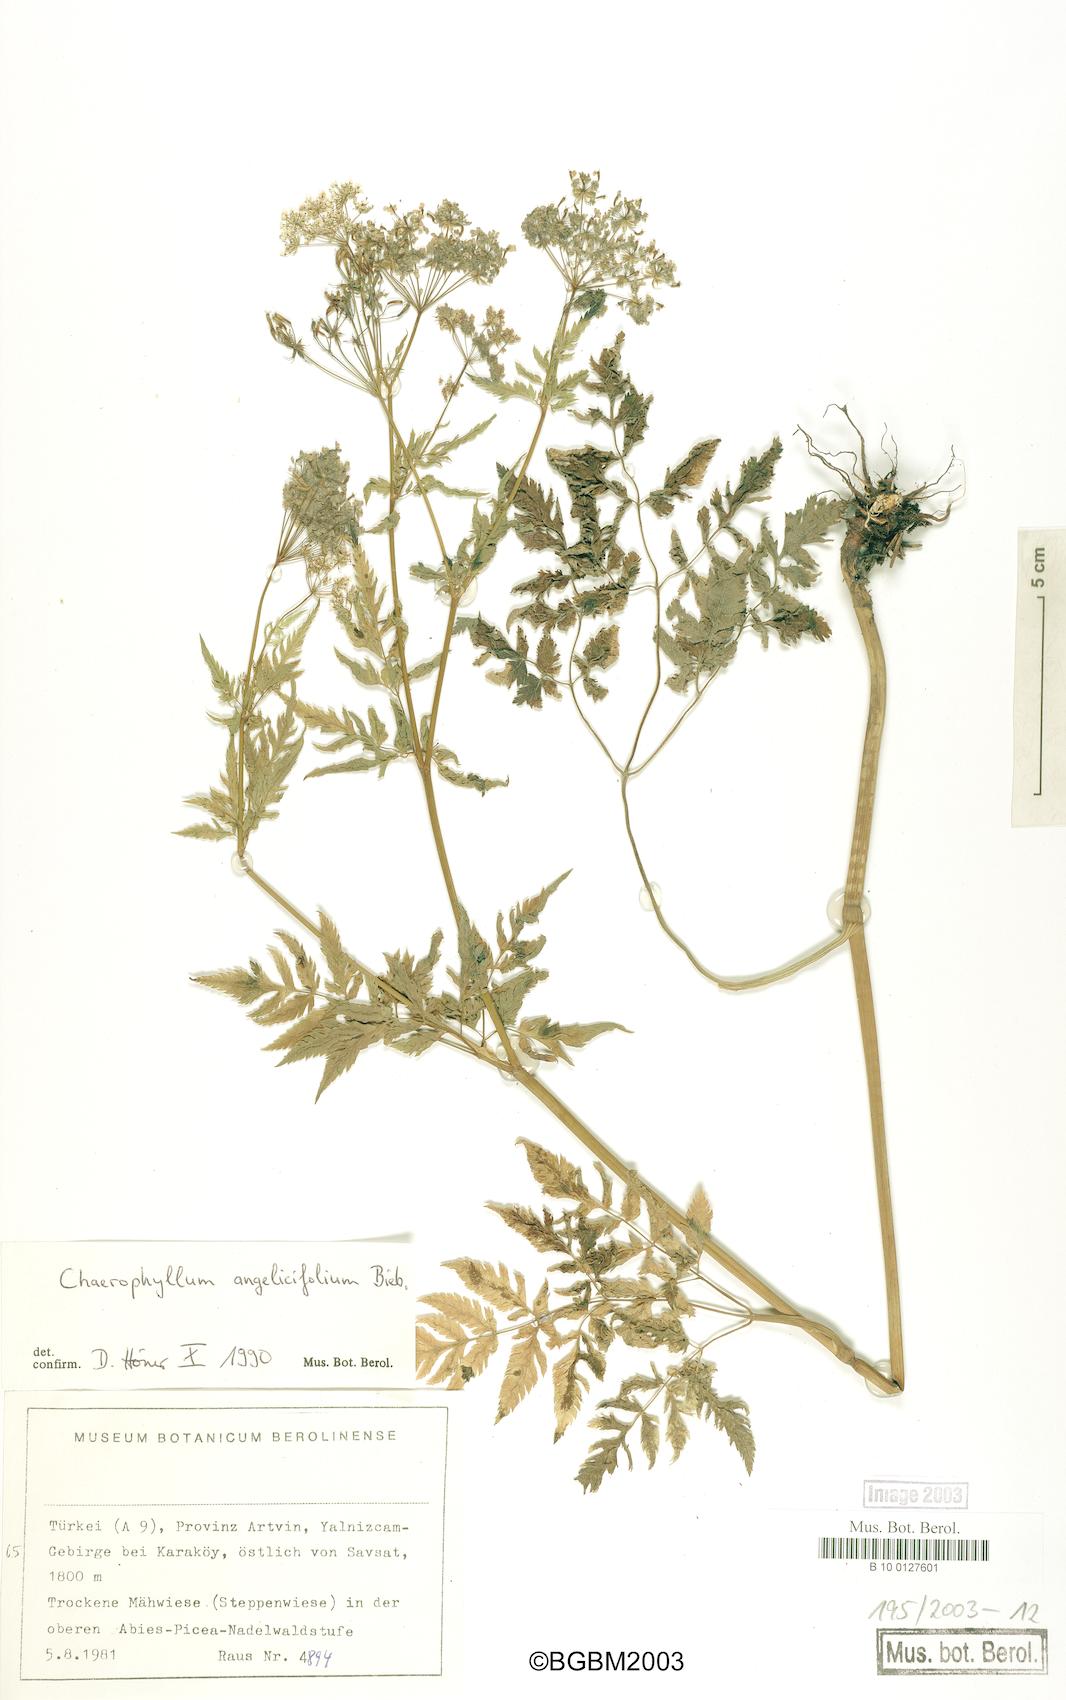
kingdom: Plantae
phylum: Tracheophyta
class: Magnoliopsida
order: Apiales
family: Apiaceae
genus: Chaerophyllum
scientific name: Chaerophyllum angelicifolium
